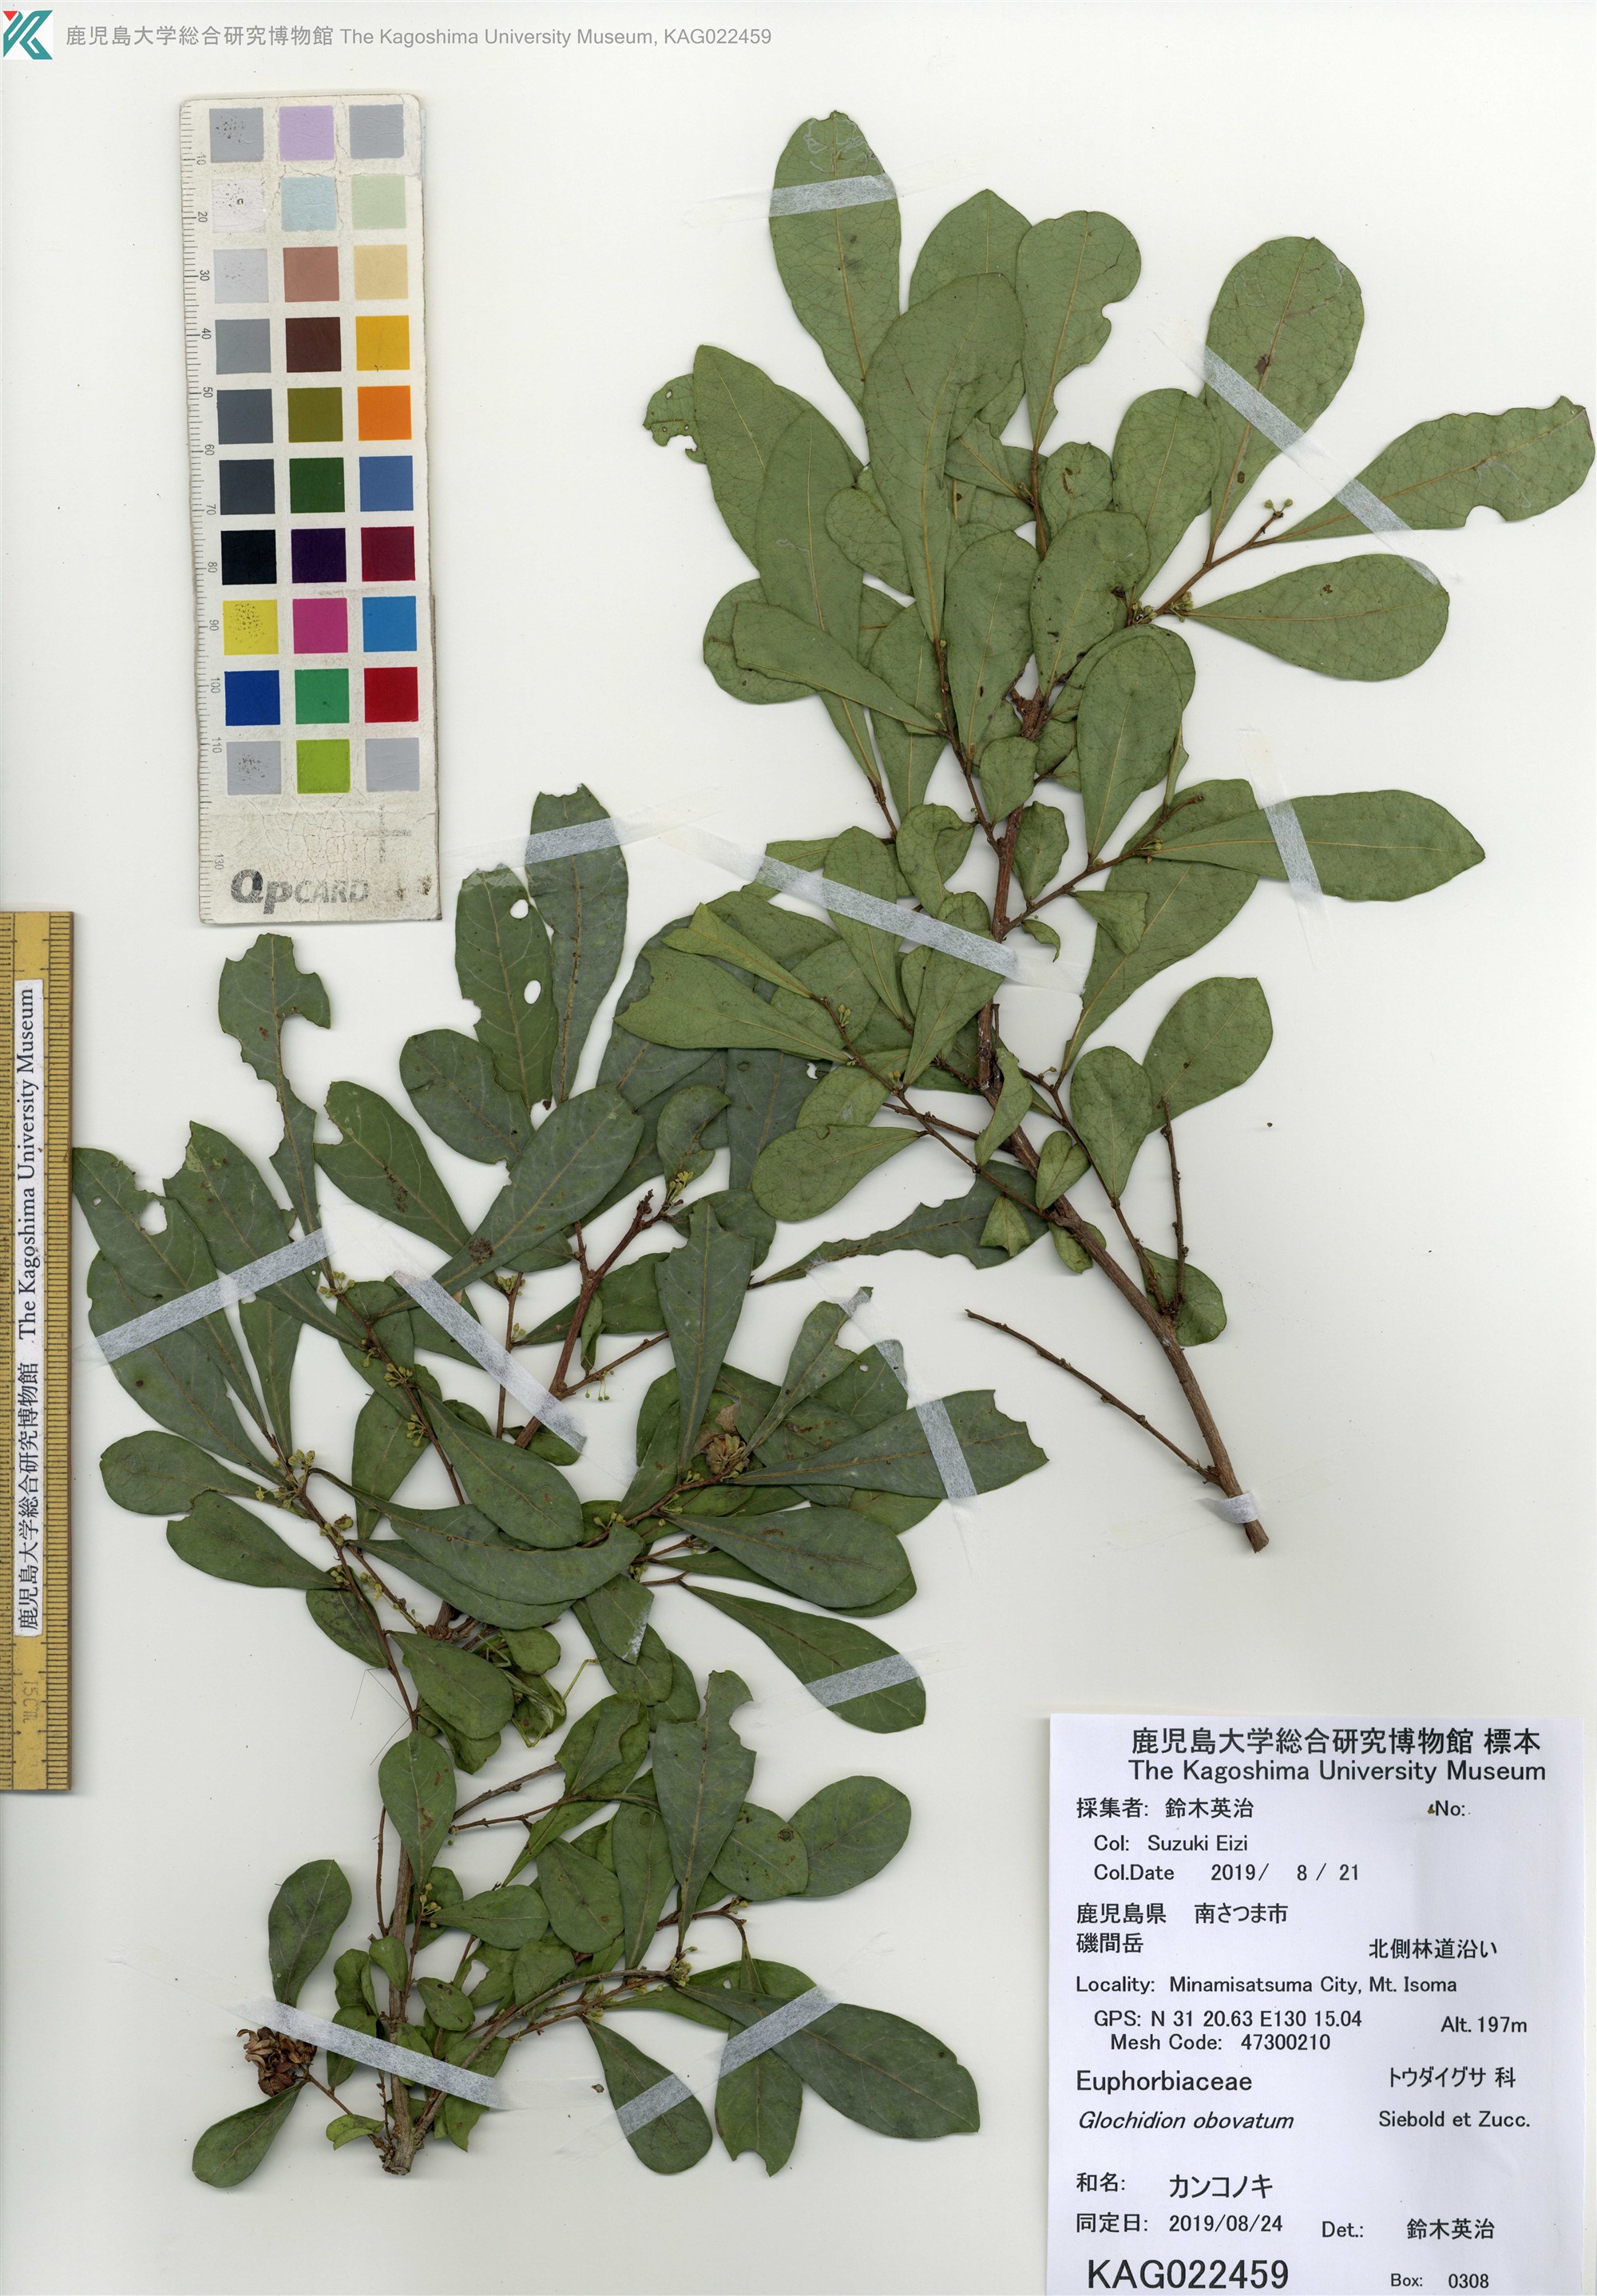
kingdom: Plantae
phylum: Tracheophyta
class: Magnoliopsida
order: Malpighiales
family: Phyllanthaceae
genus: Glochidion
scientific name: Glochidion obovatum
